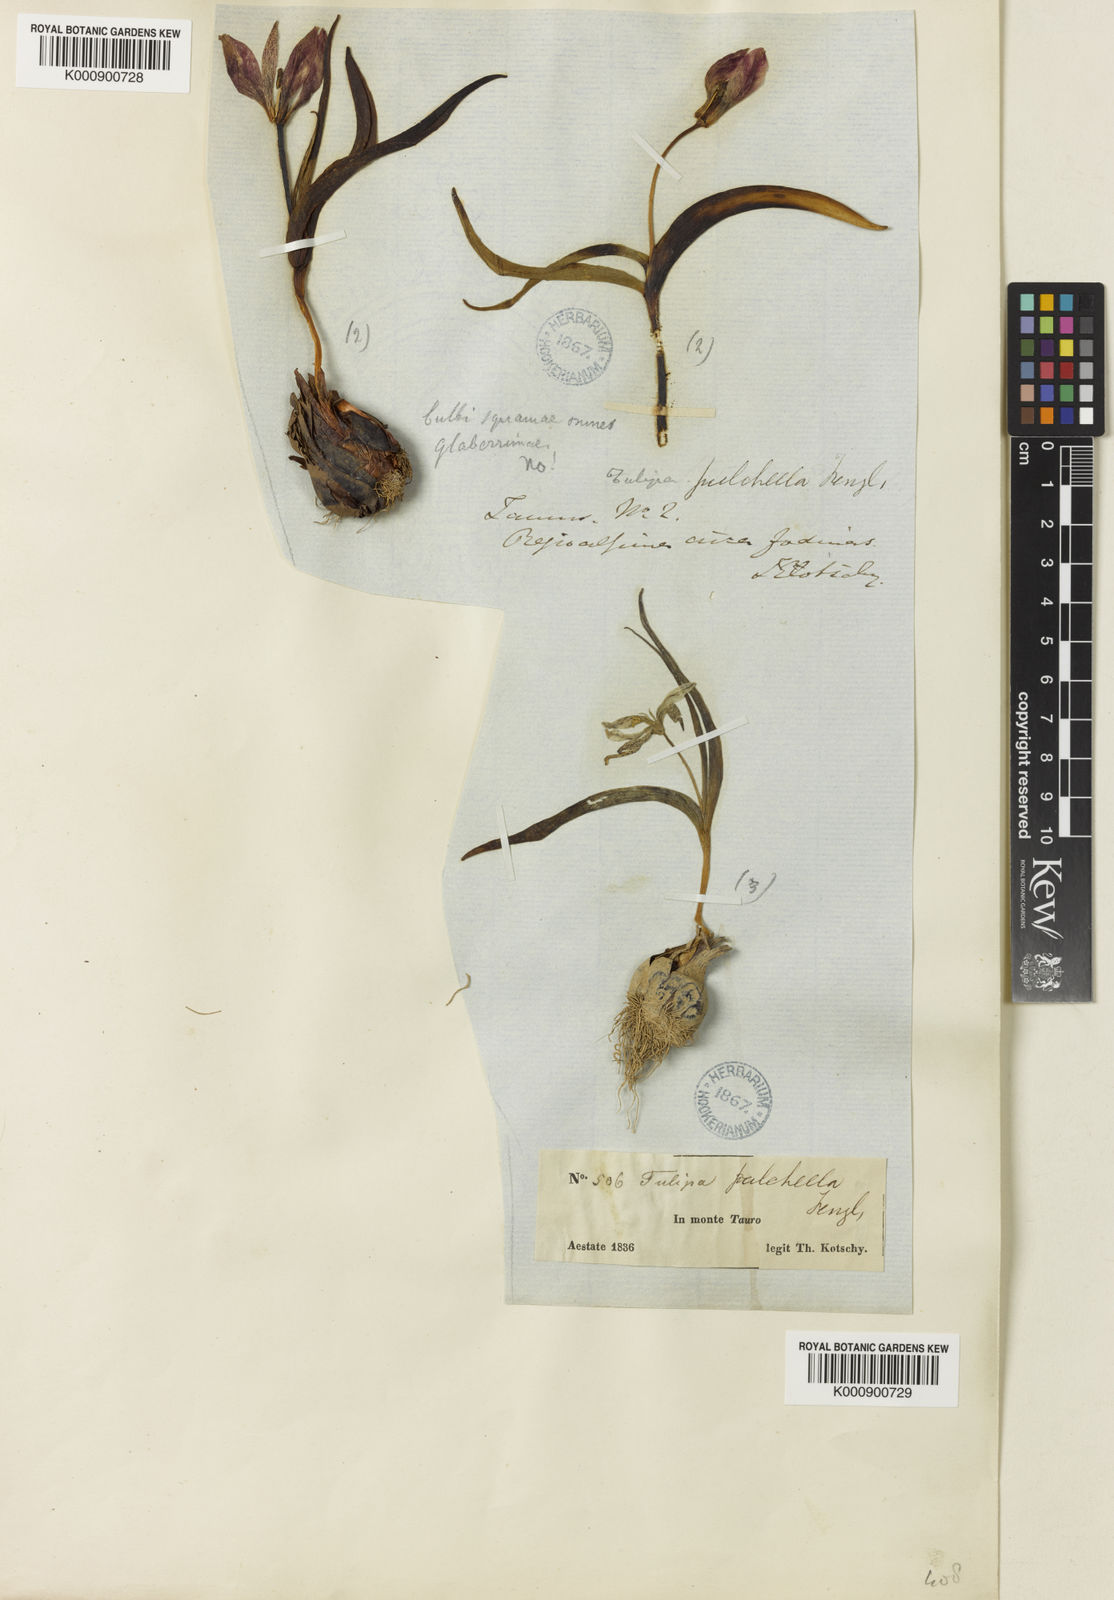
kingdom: Plantae
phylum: Tracheophyta
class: Liliopsida
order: Liliales
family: Liliaceae
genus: Tulipa
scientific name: Tulipa humilis
